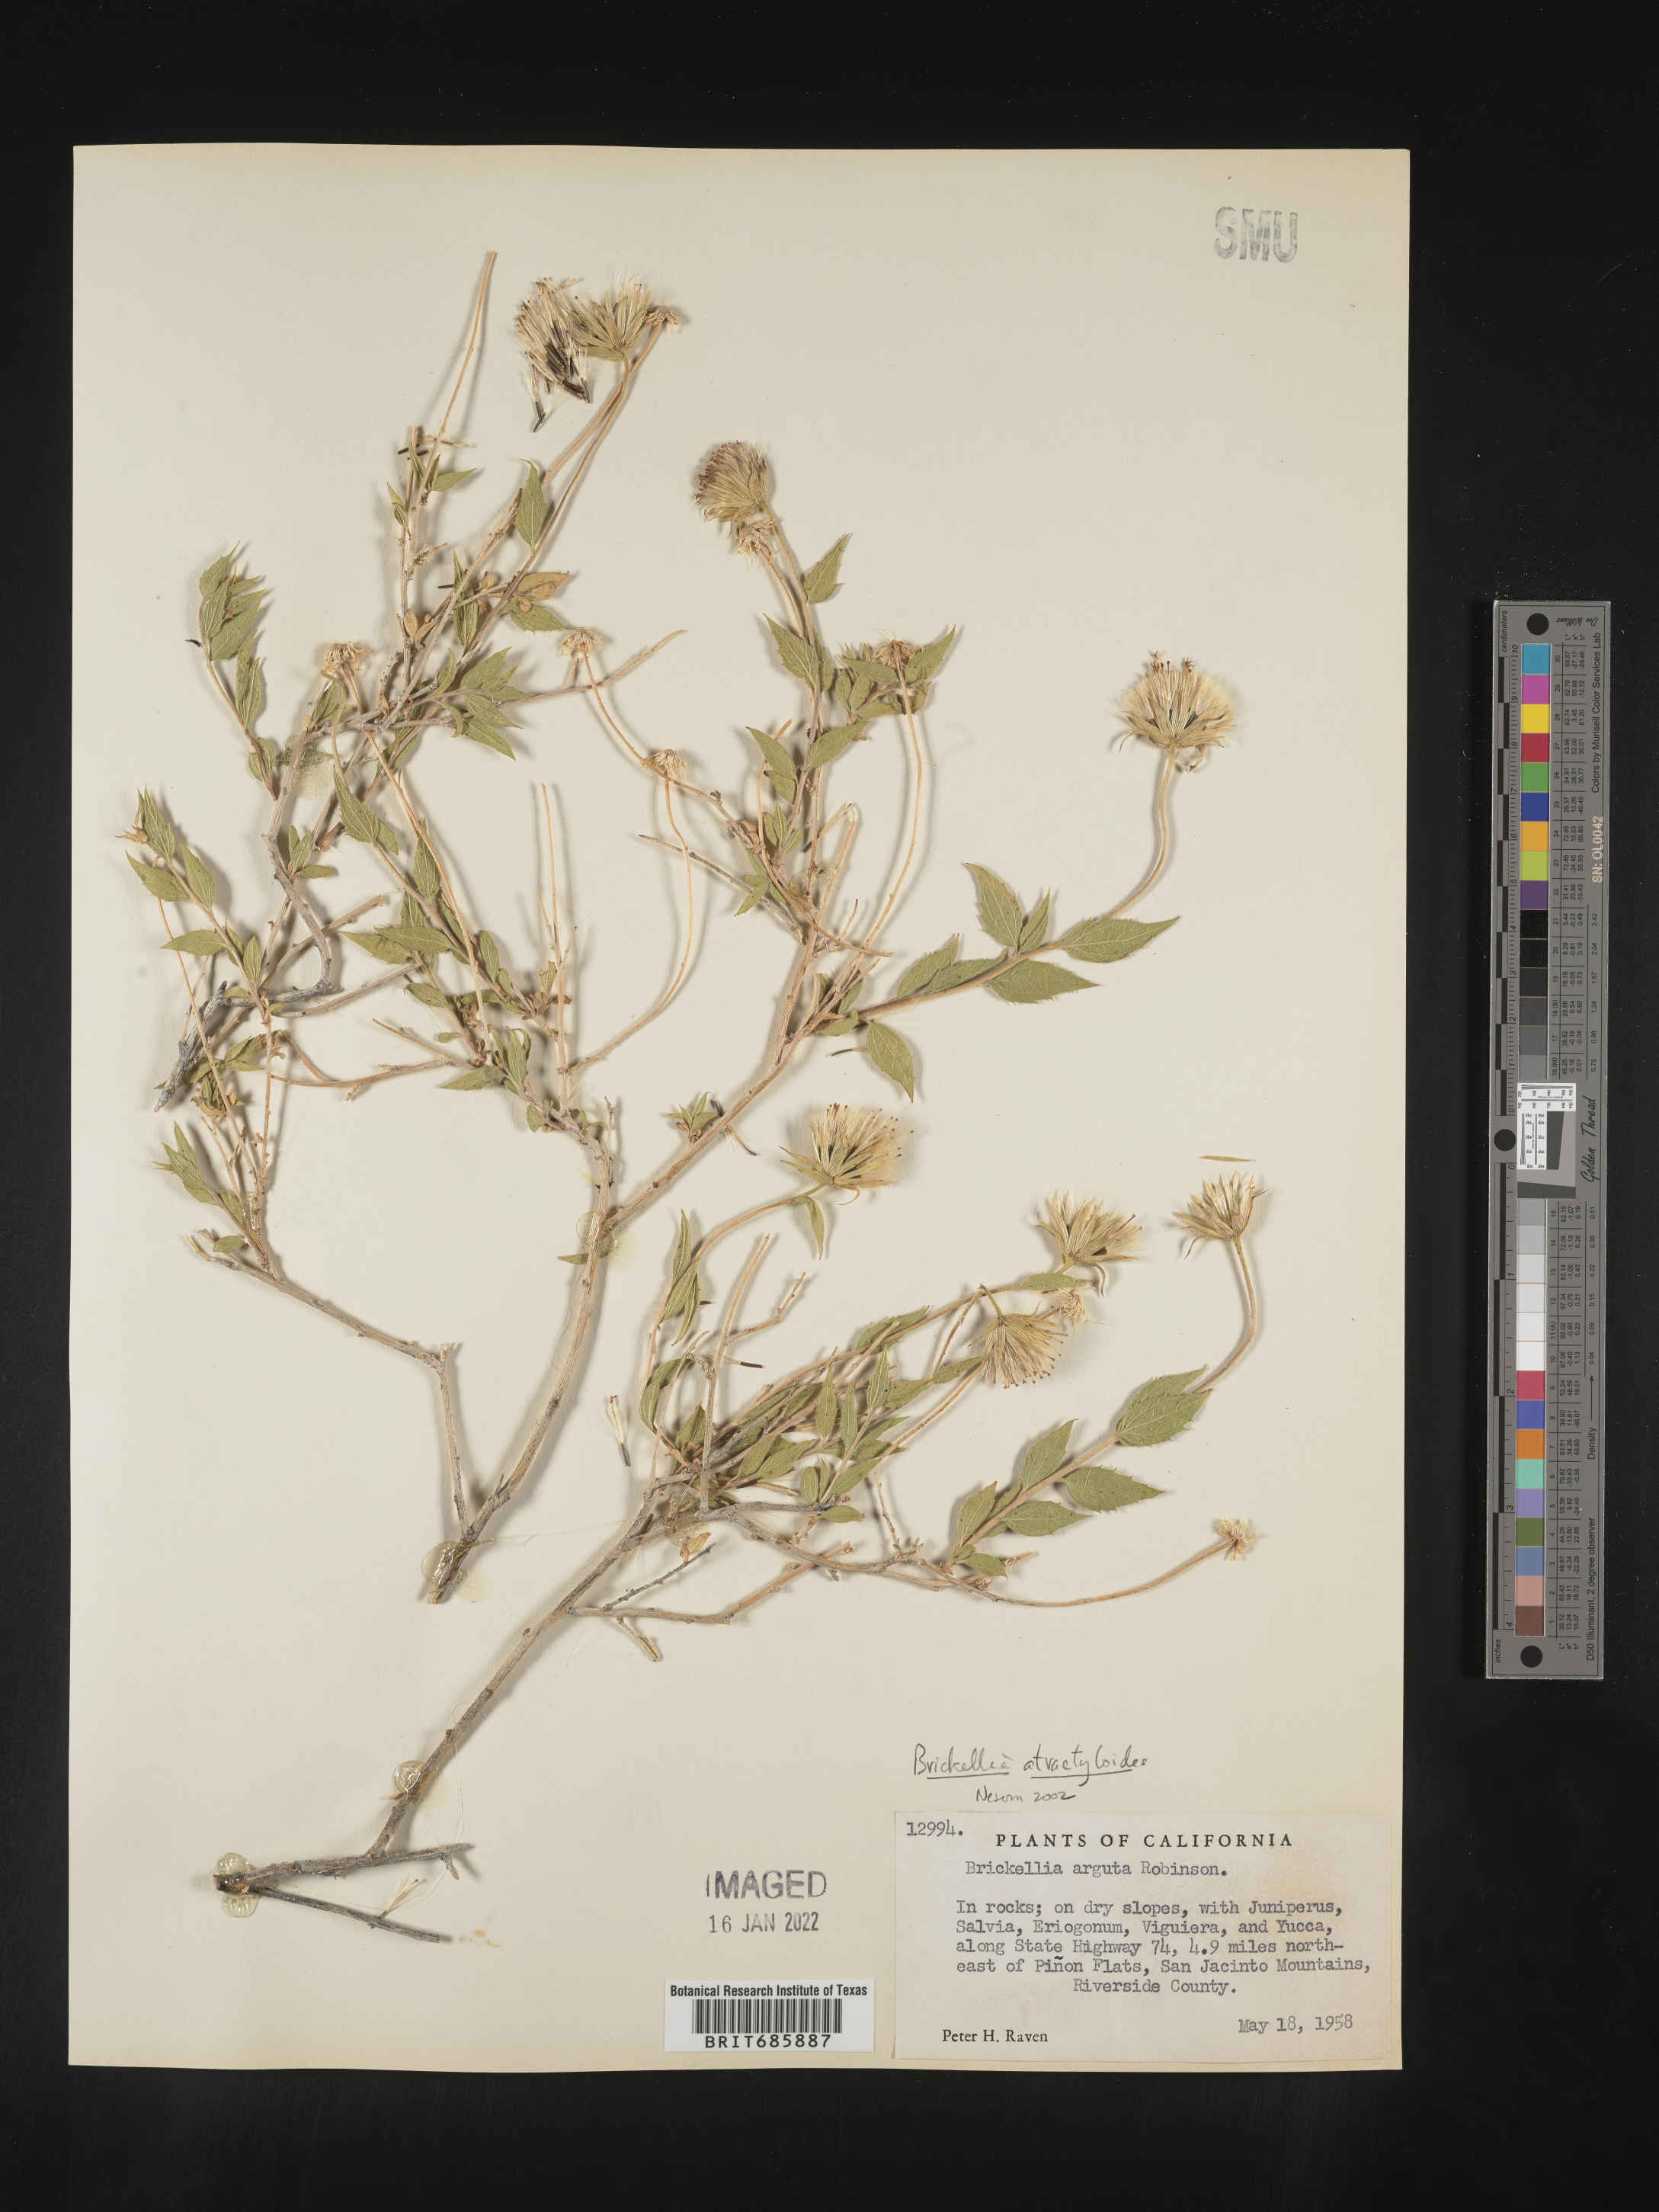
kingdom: Plantae
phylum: Tracheophyta
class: Magnoliopsida
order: Asterales
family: Asteraceae
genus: Brickellia
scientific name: Brickellia atractyloides
